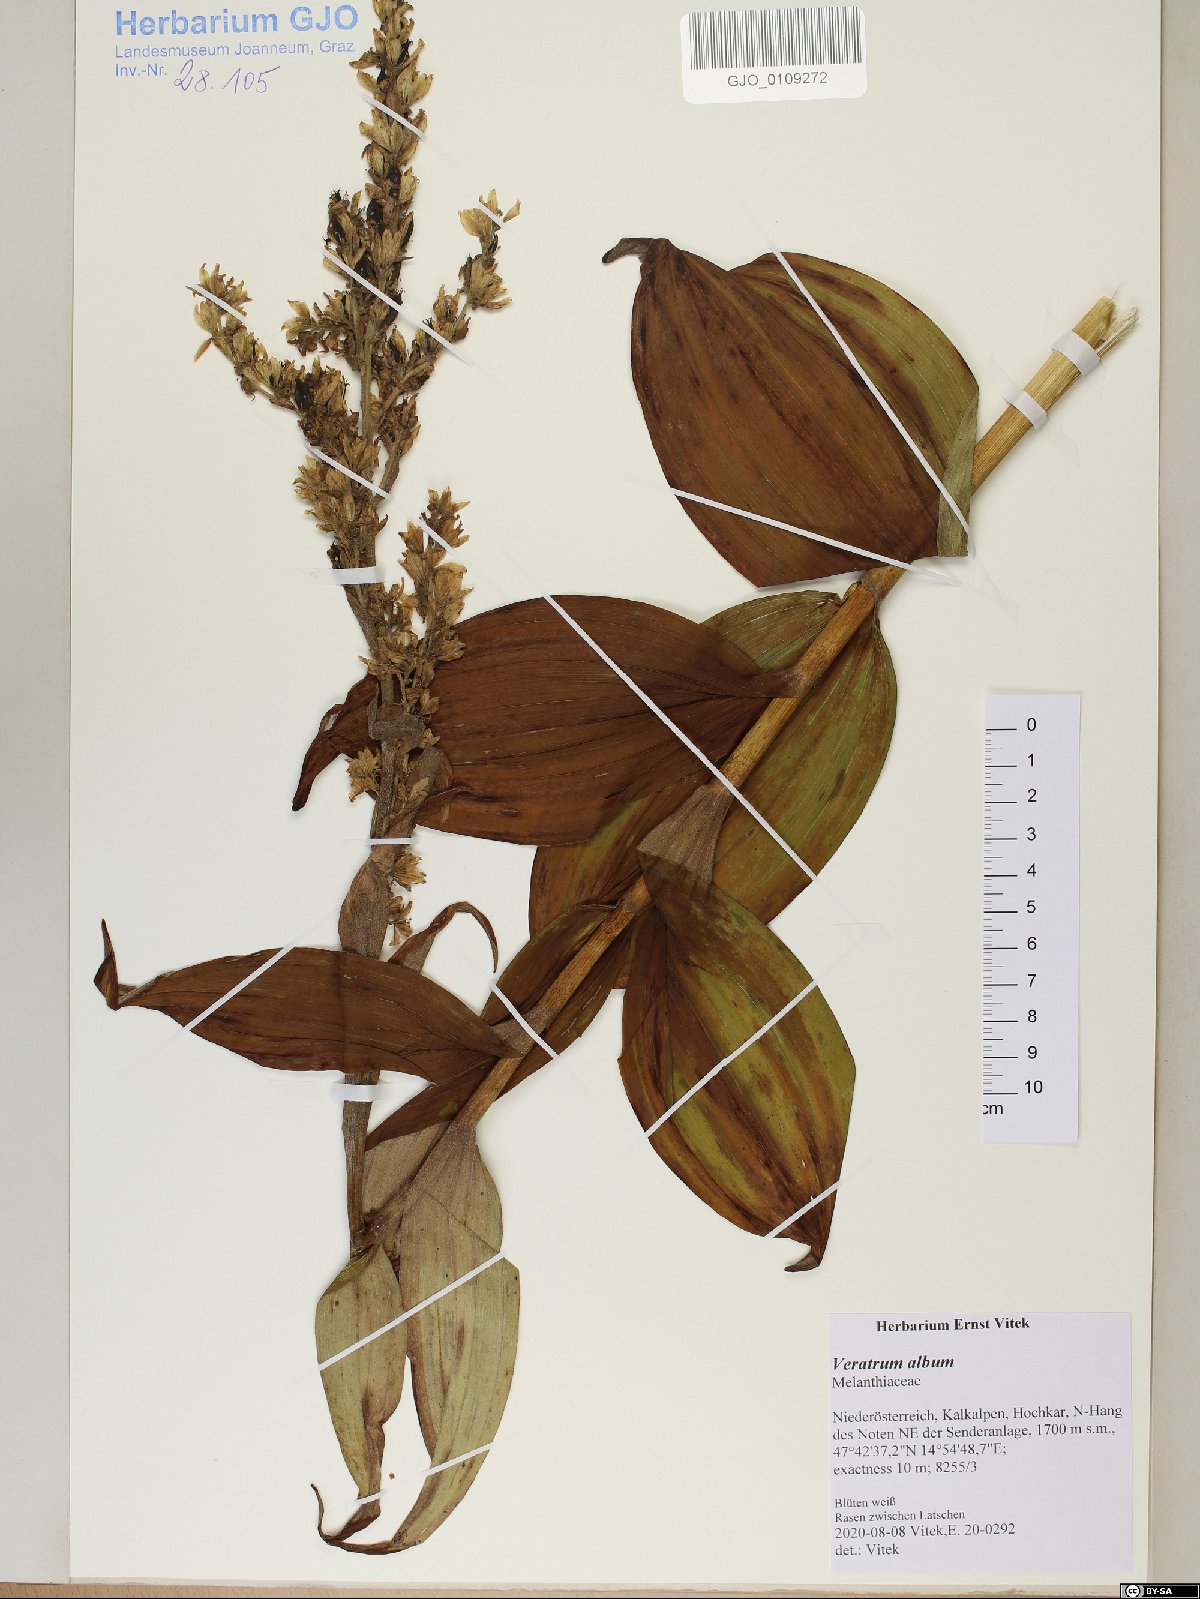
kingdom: Plantae
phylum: Tracheophyta
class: Liliopsida
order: Liliales
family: Melanthiaceae
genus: Veratrum
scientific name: Veratrum album
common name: White veratrum
